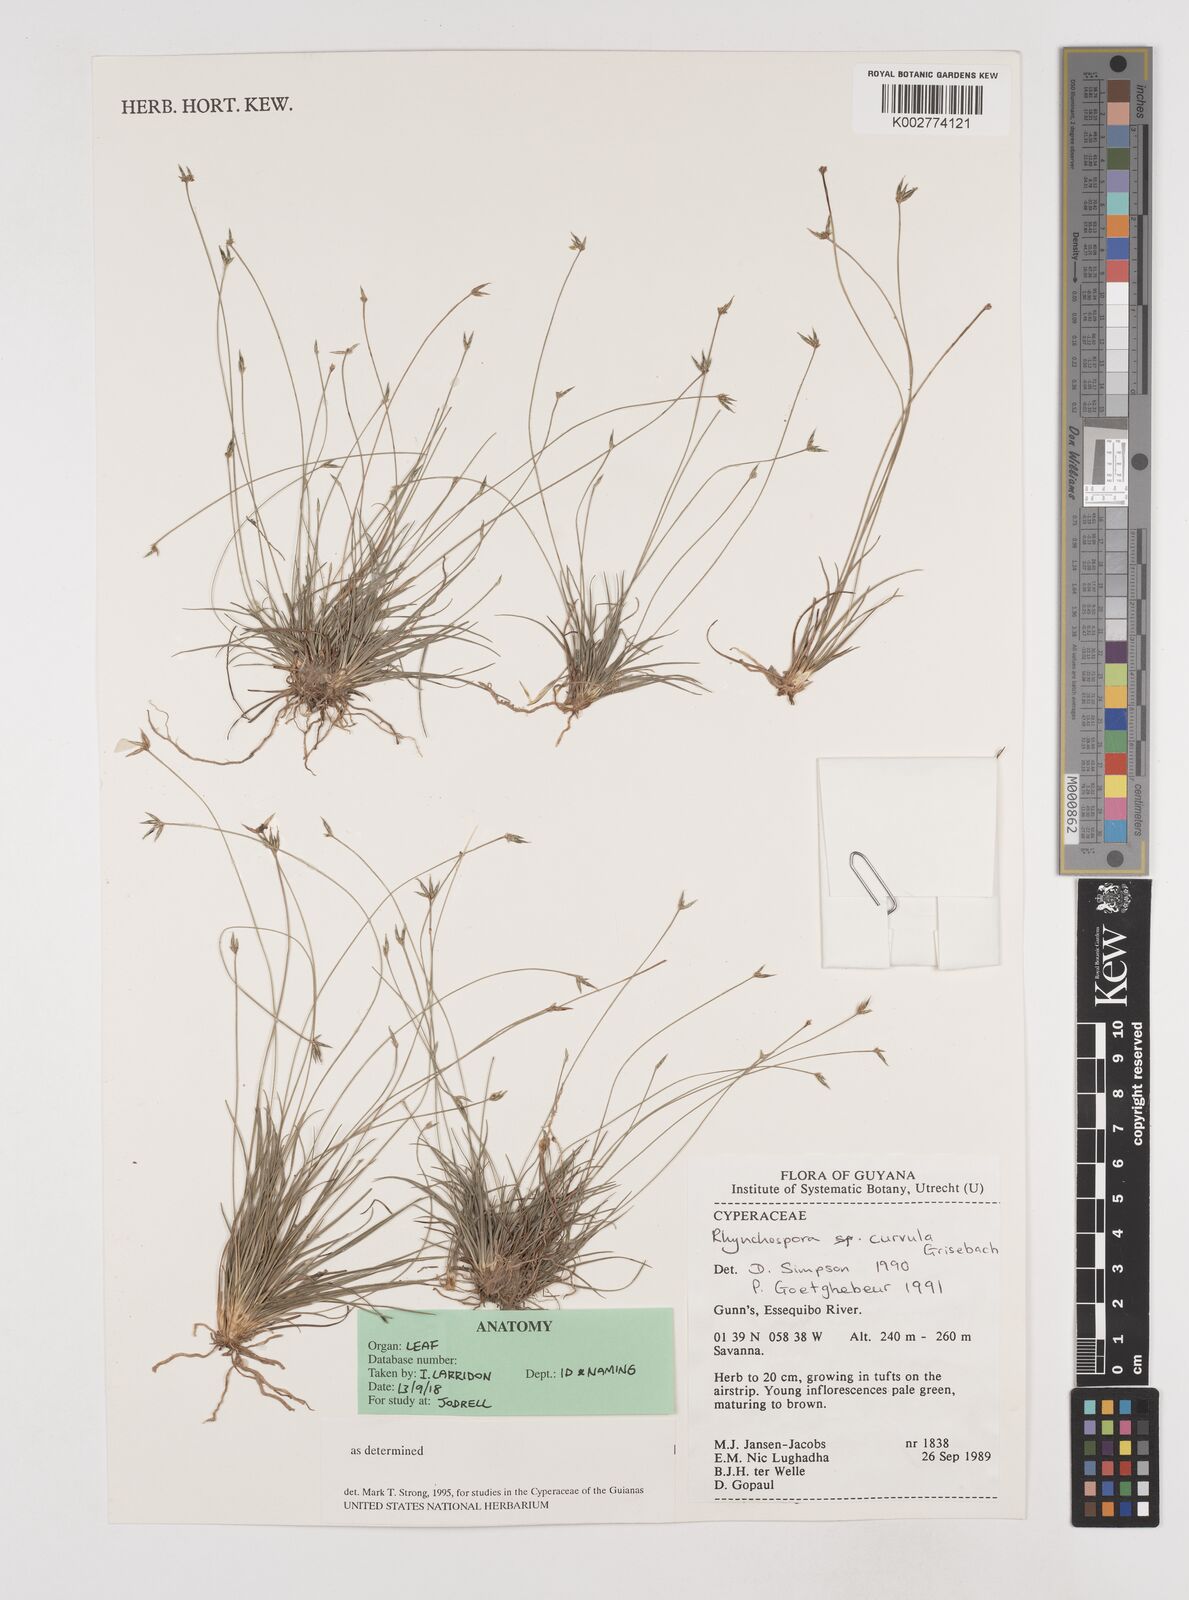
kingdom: Plantae
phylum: Tracheophyta
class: Liliopsida
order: Poales
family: Cyperaceae
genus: Rhynchospora
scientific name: Rhynchospora curvula
